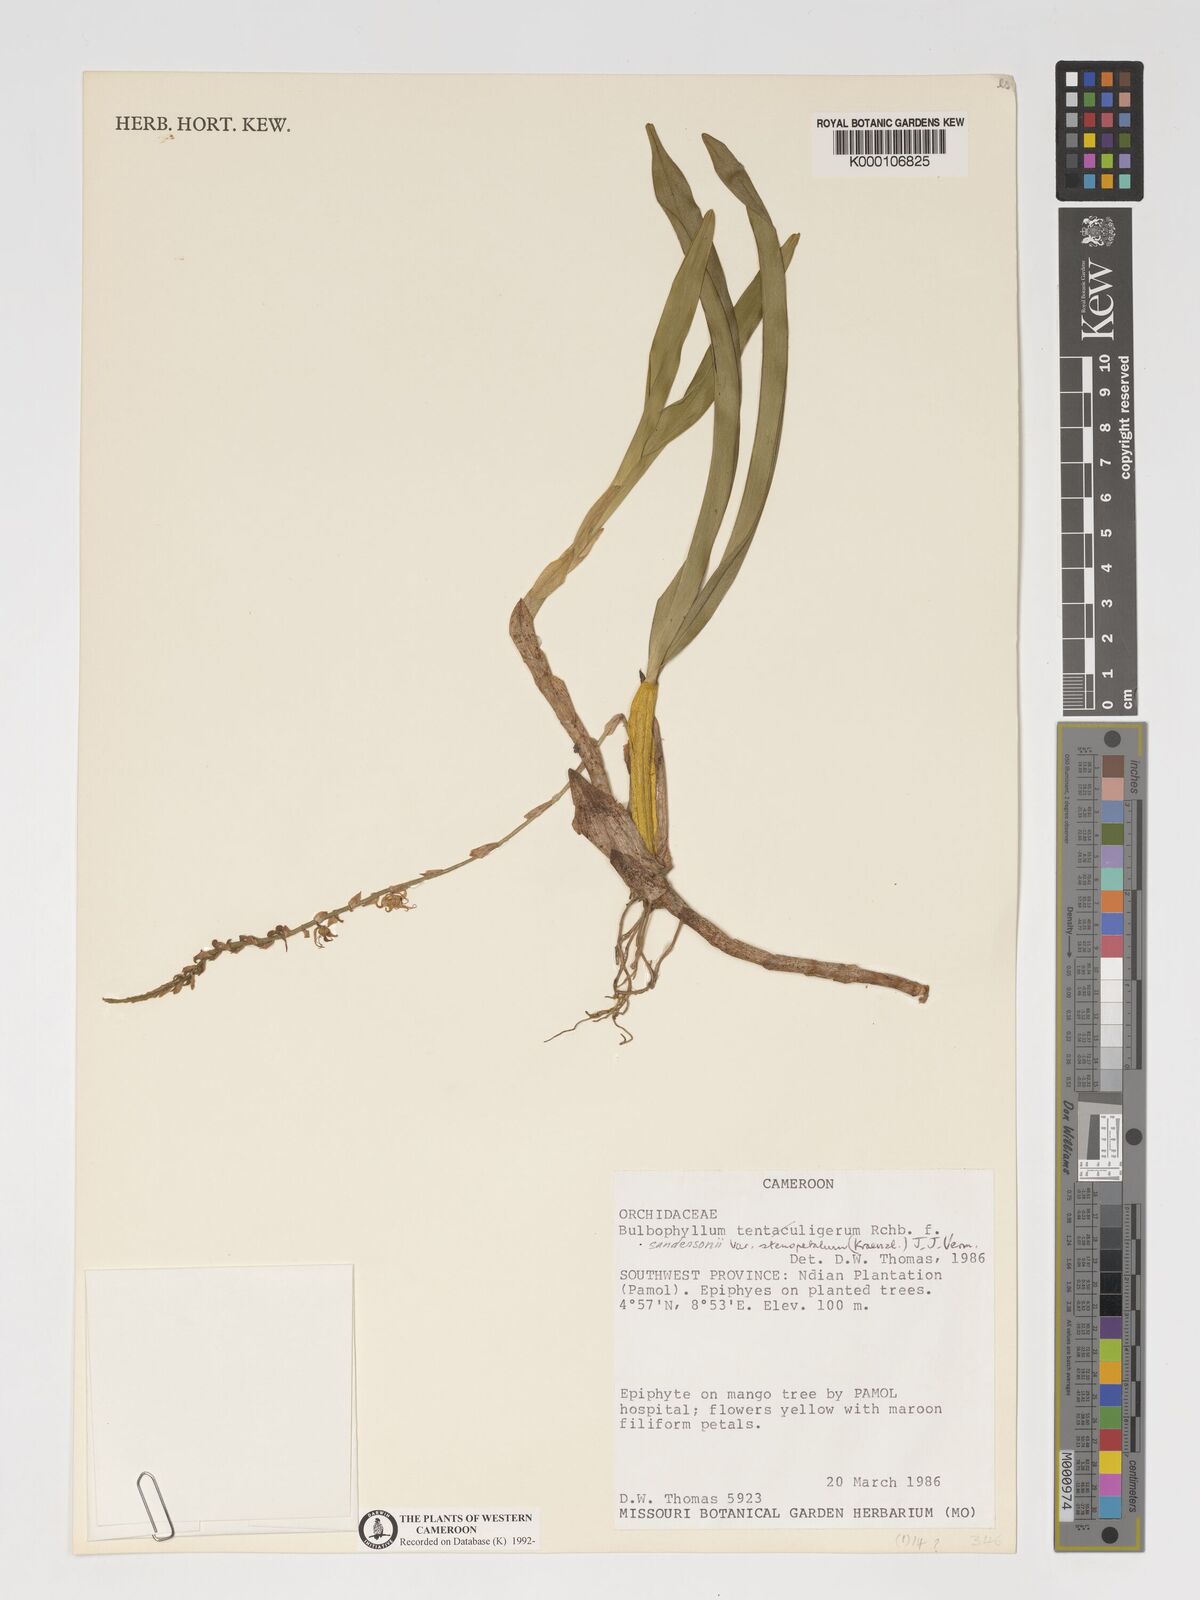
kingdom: Plantae
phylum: Tracheophyta
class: Liliopsida
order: Asparagales
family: Orchidaceae
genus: Bulbophyllum
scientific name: Bulbophyllum sandersonii
